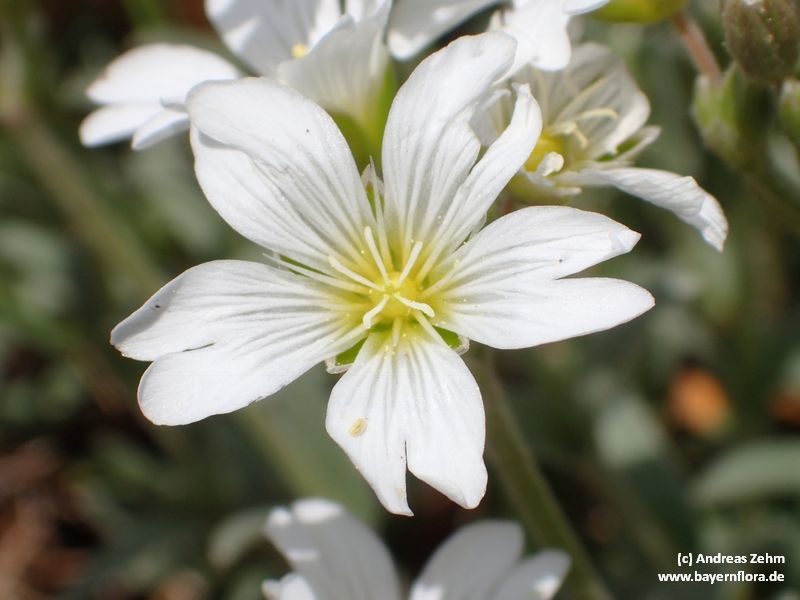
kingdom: Plantae
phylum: Tracheophyta
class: Magnoliopsida
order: Caryophyllales
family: Caryophyllaceae
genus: Cerastium
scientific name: Cerastium tomentosum
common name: Snow-in-summer
